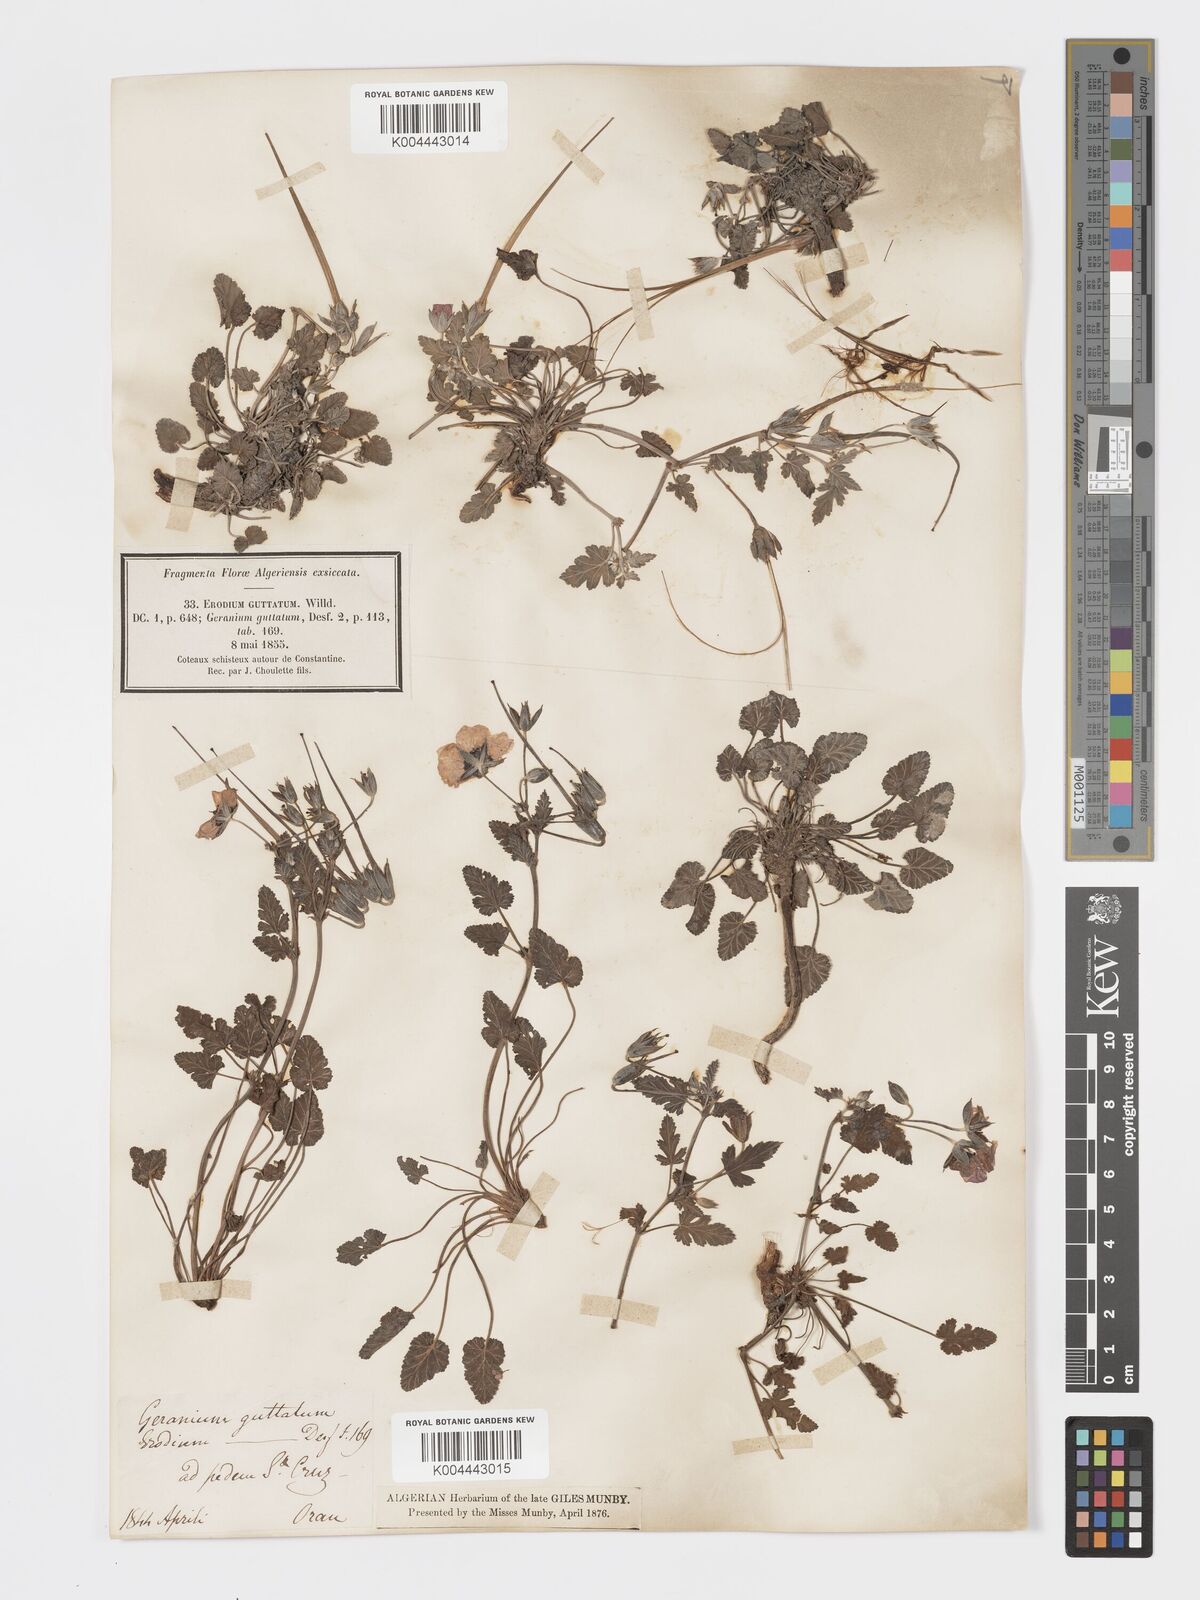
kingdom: Plantae
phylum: Tracheophyta
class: Magnoliopsida
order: Geraniales
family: Geraniaceae
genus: Erodium
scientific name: Erodium guttatum
